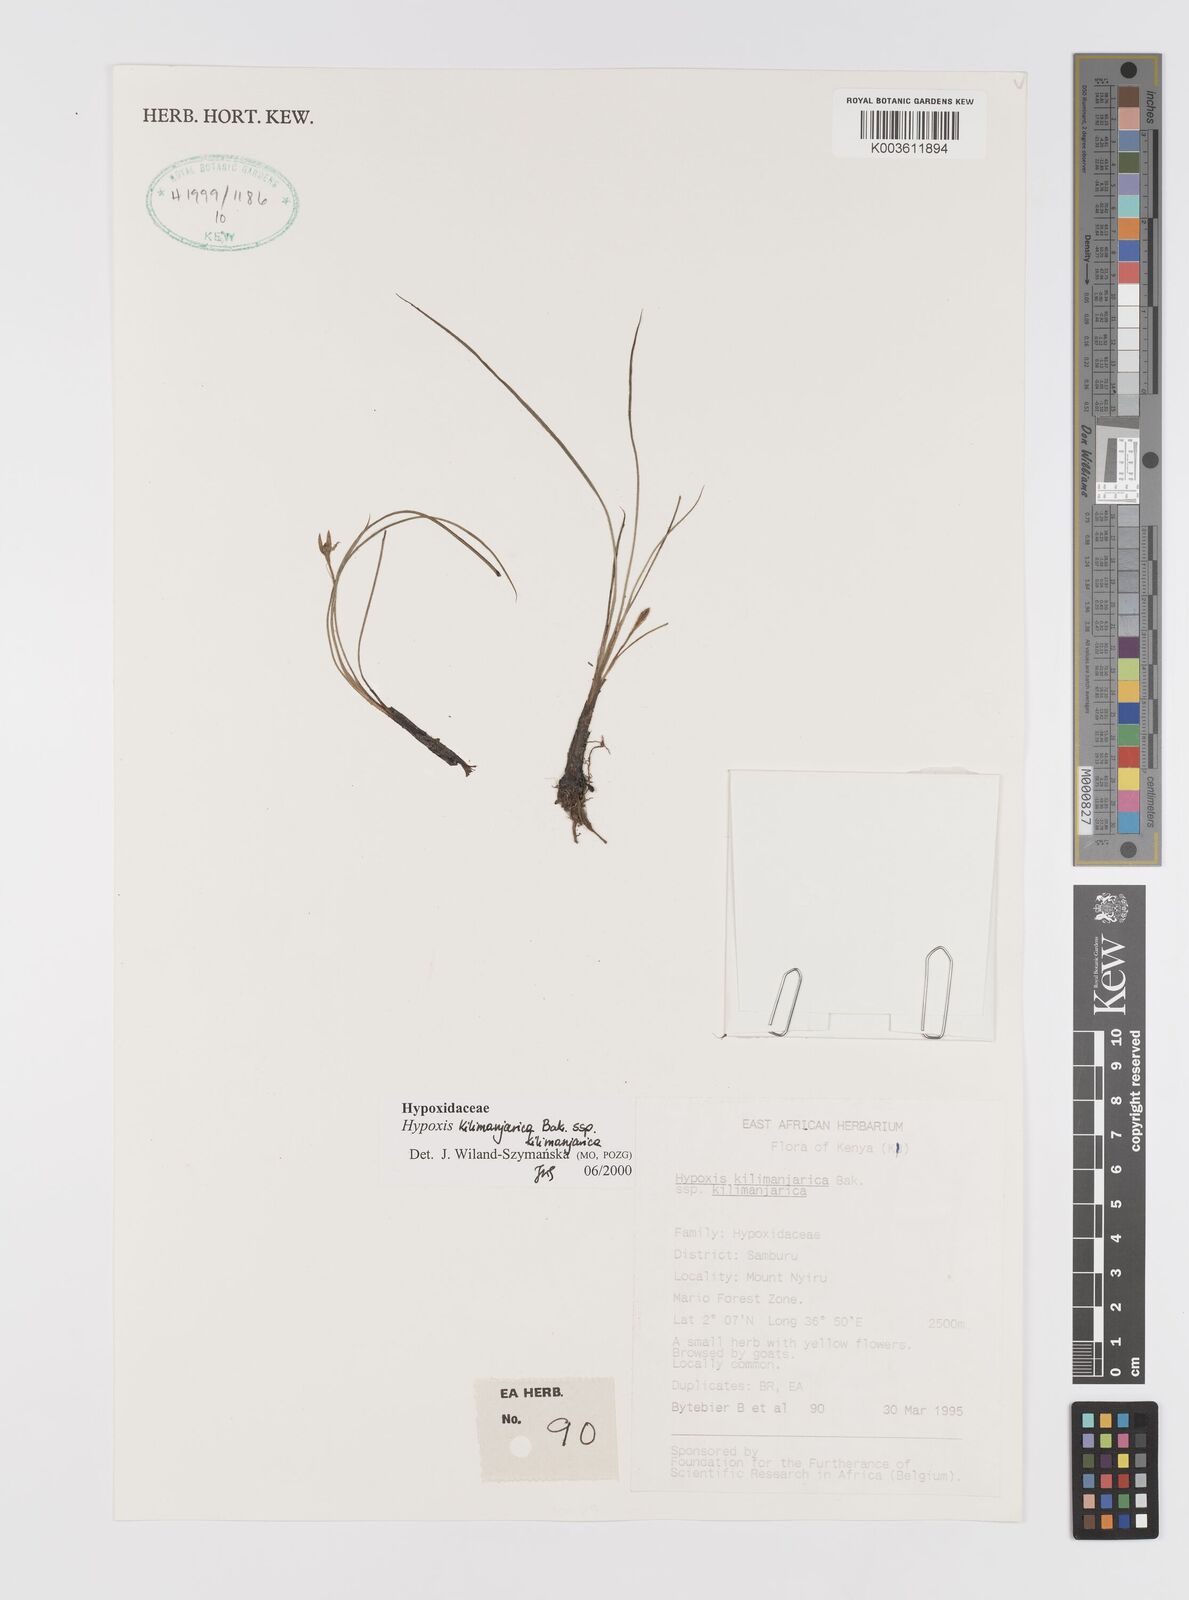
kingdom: Plantae
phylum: Tracheophyta
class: Liliopsida
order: Asparagales
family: Hypoxidaceae
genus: Hypoxis
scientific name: Hypoxis kilimanjarica
